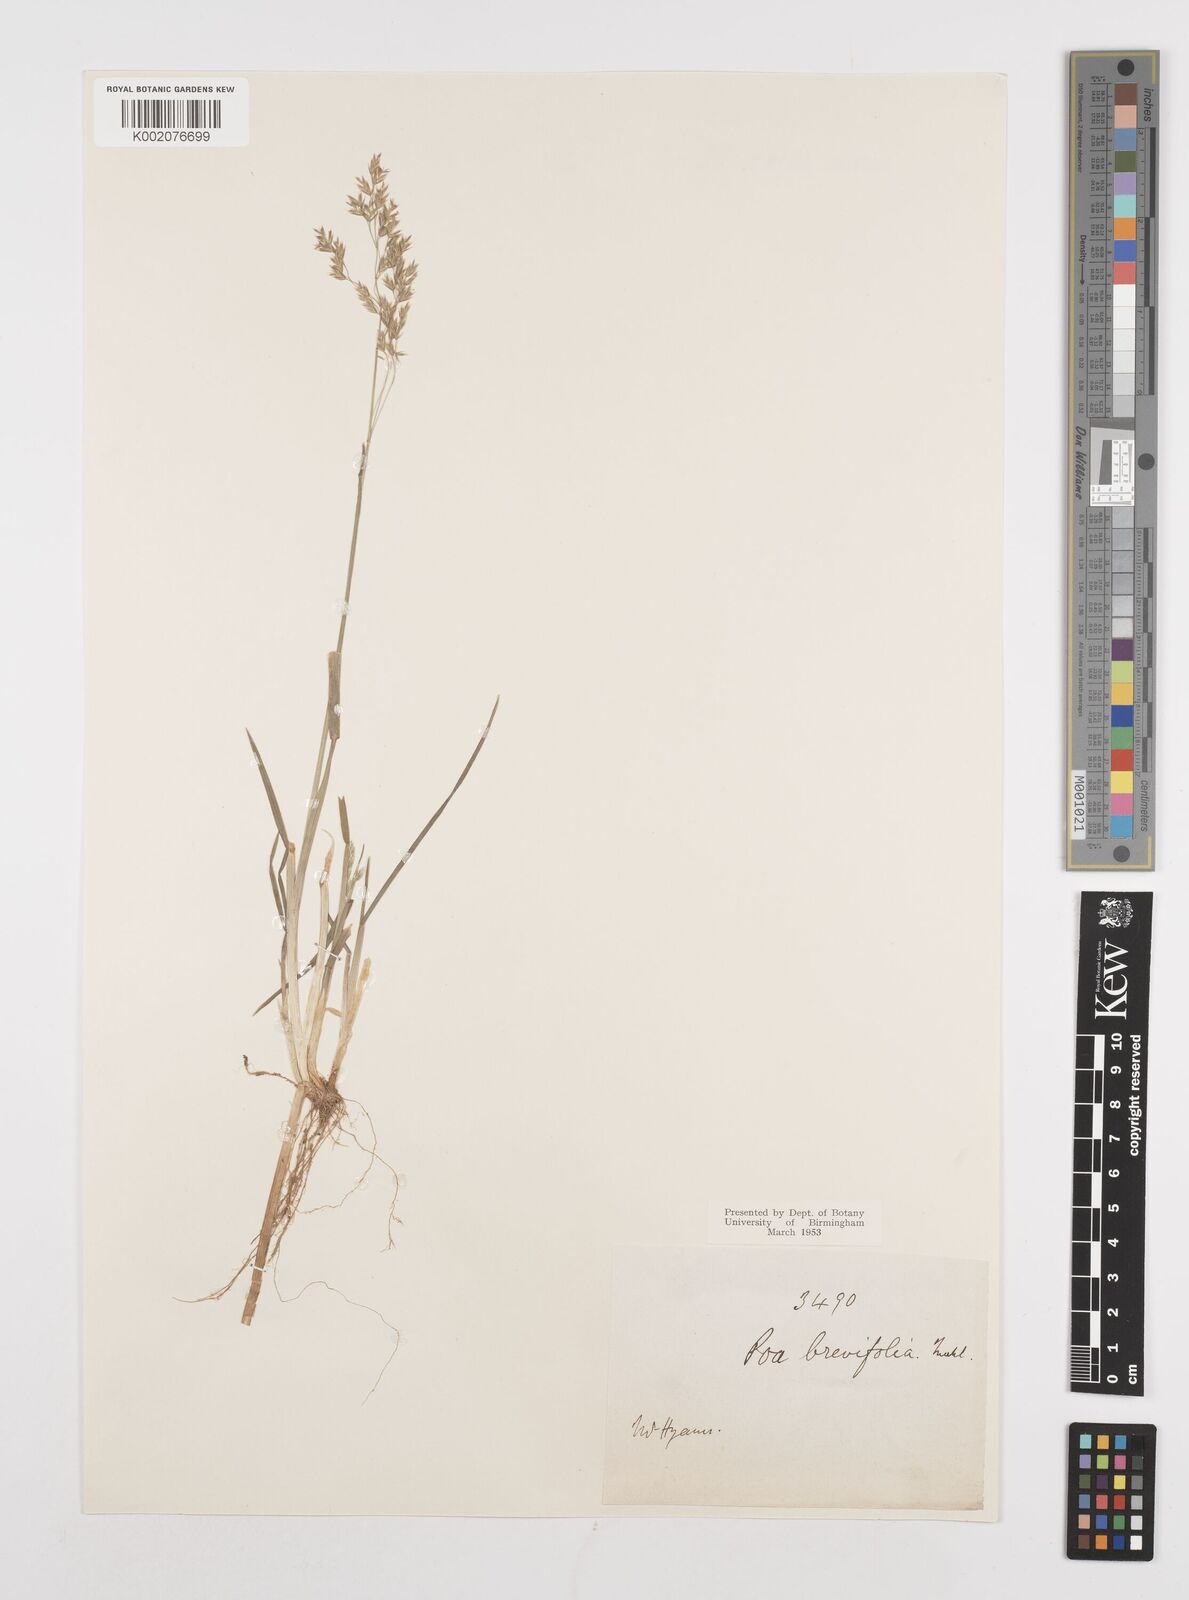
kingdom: Plantae
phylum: Tracheophyta
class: Liliopsida
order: Poales
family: Poaceae
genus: Poa
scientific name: Poa
